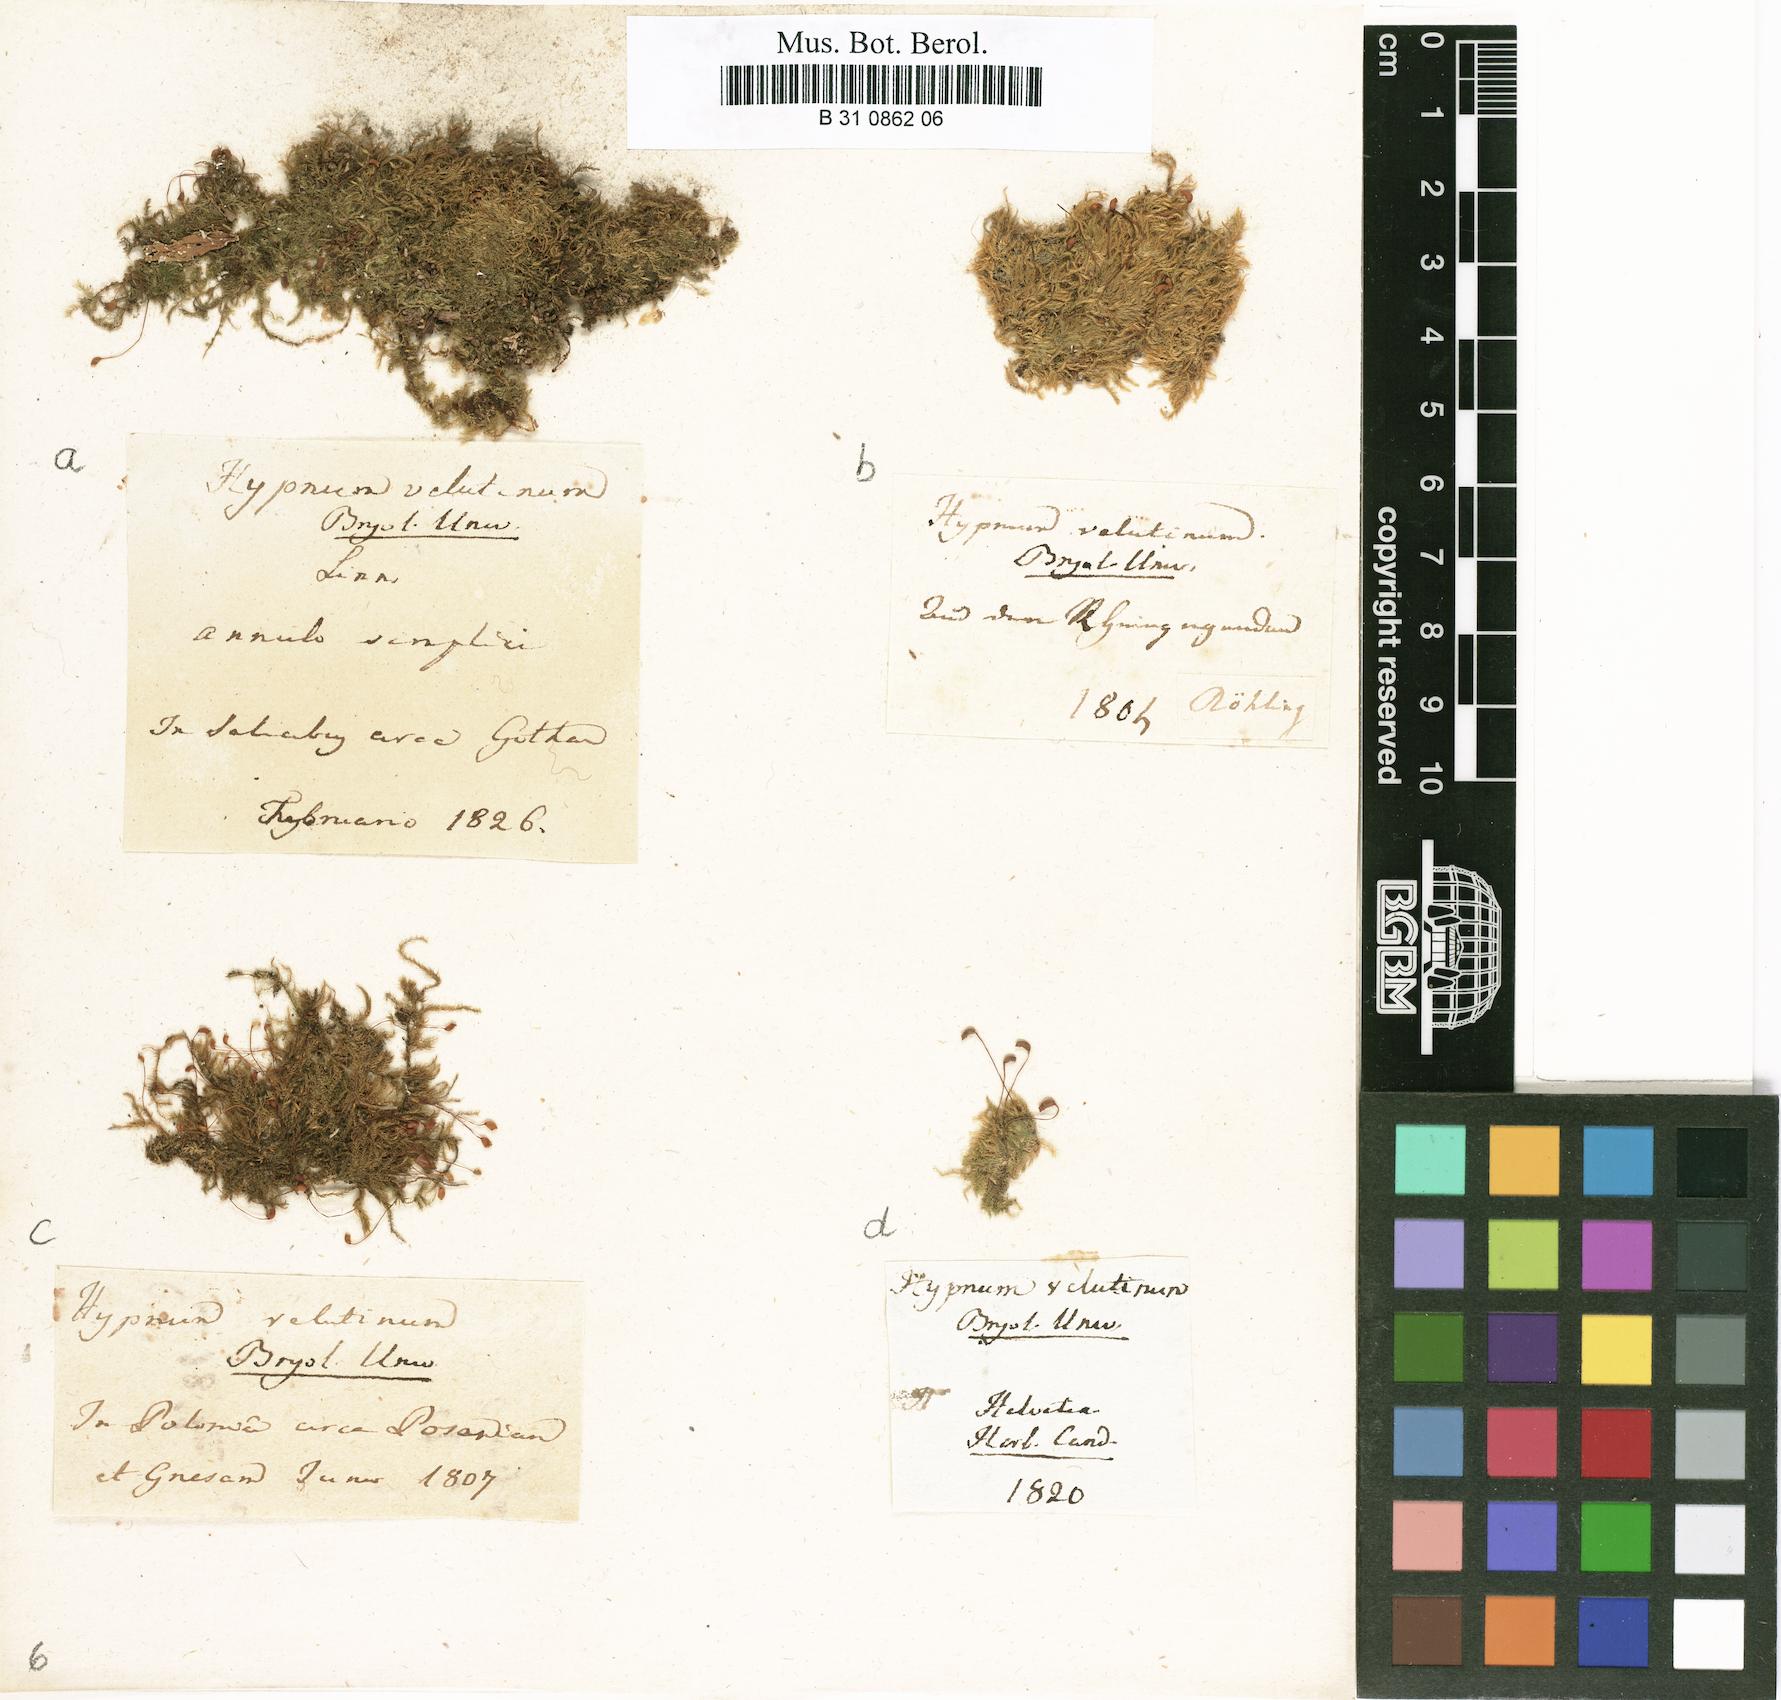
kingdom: Plantae
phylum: Bryophyta
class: Bryopsida
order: Hypnales
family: Brachytheciaceae
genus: Brachytheciastrum
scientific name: Brachytheciastrum velutinum
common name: Velvet feather-moss
